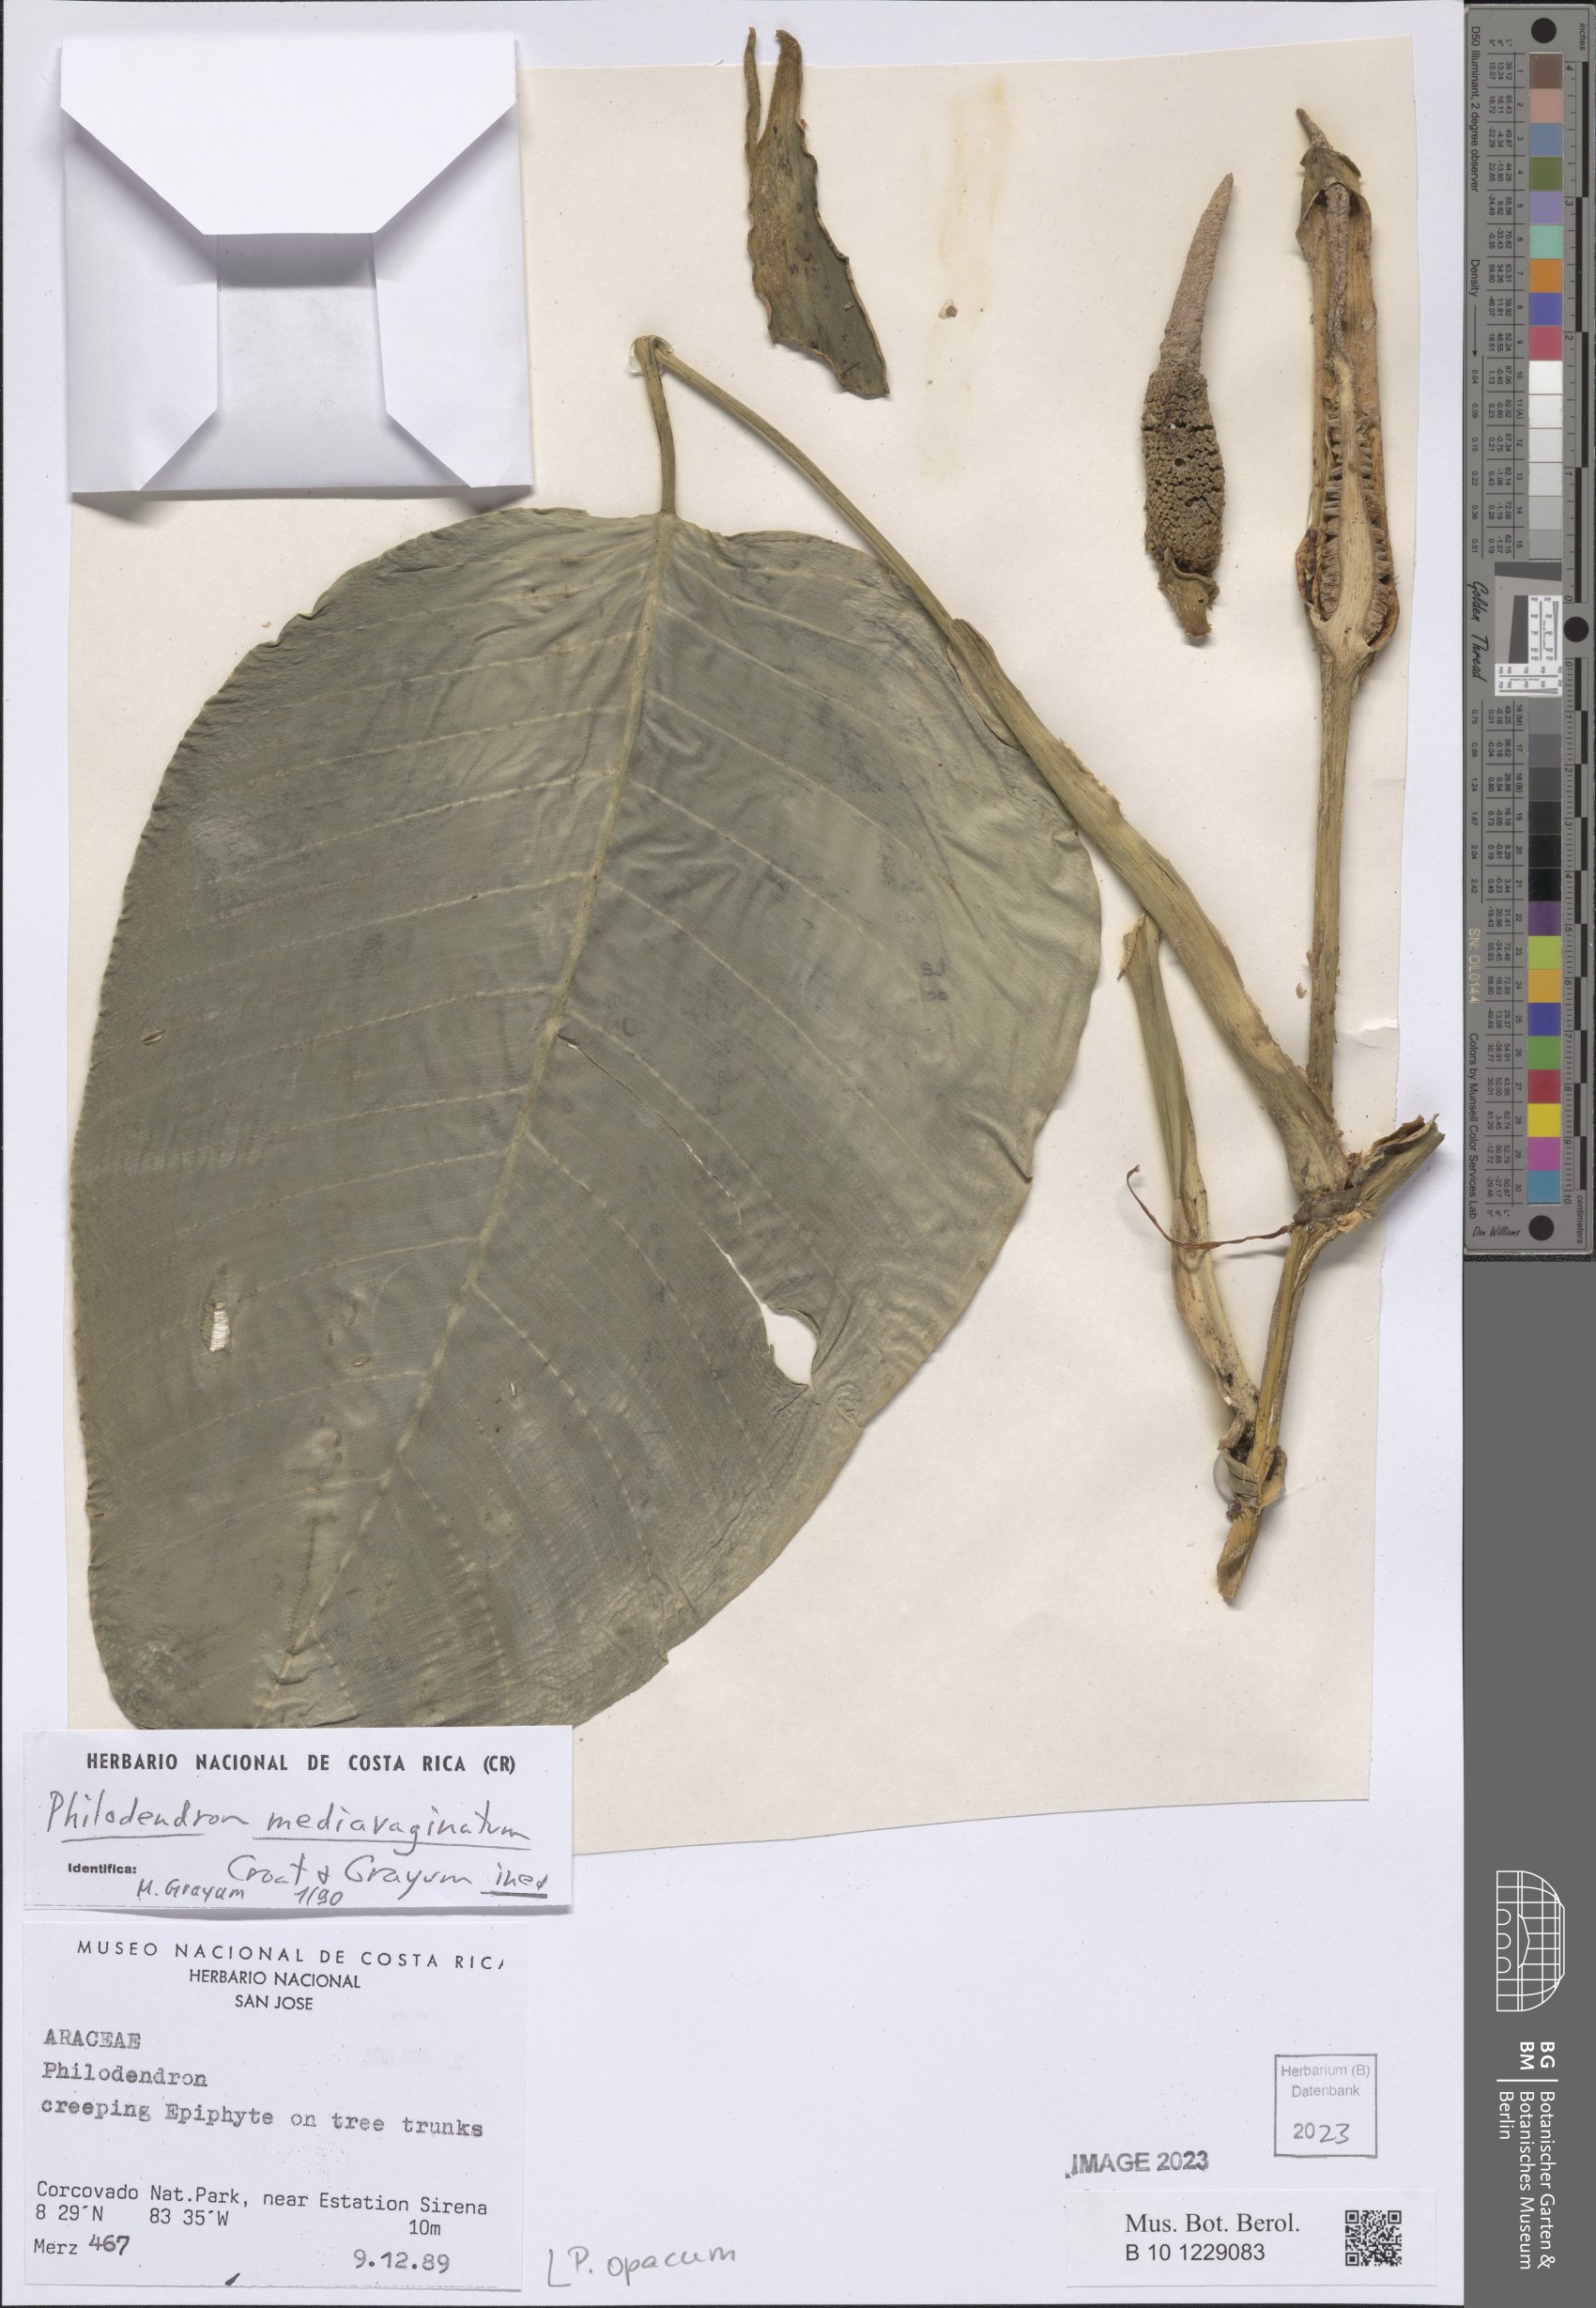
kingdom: Plantae
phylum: Tracheophyta
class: Liliopsida
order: Alismatales
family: Araceae
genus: Philodendron
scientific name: Philodendron opacum
